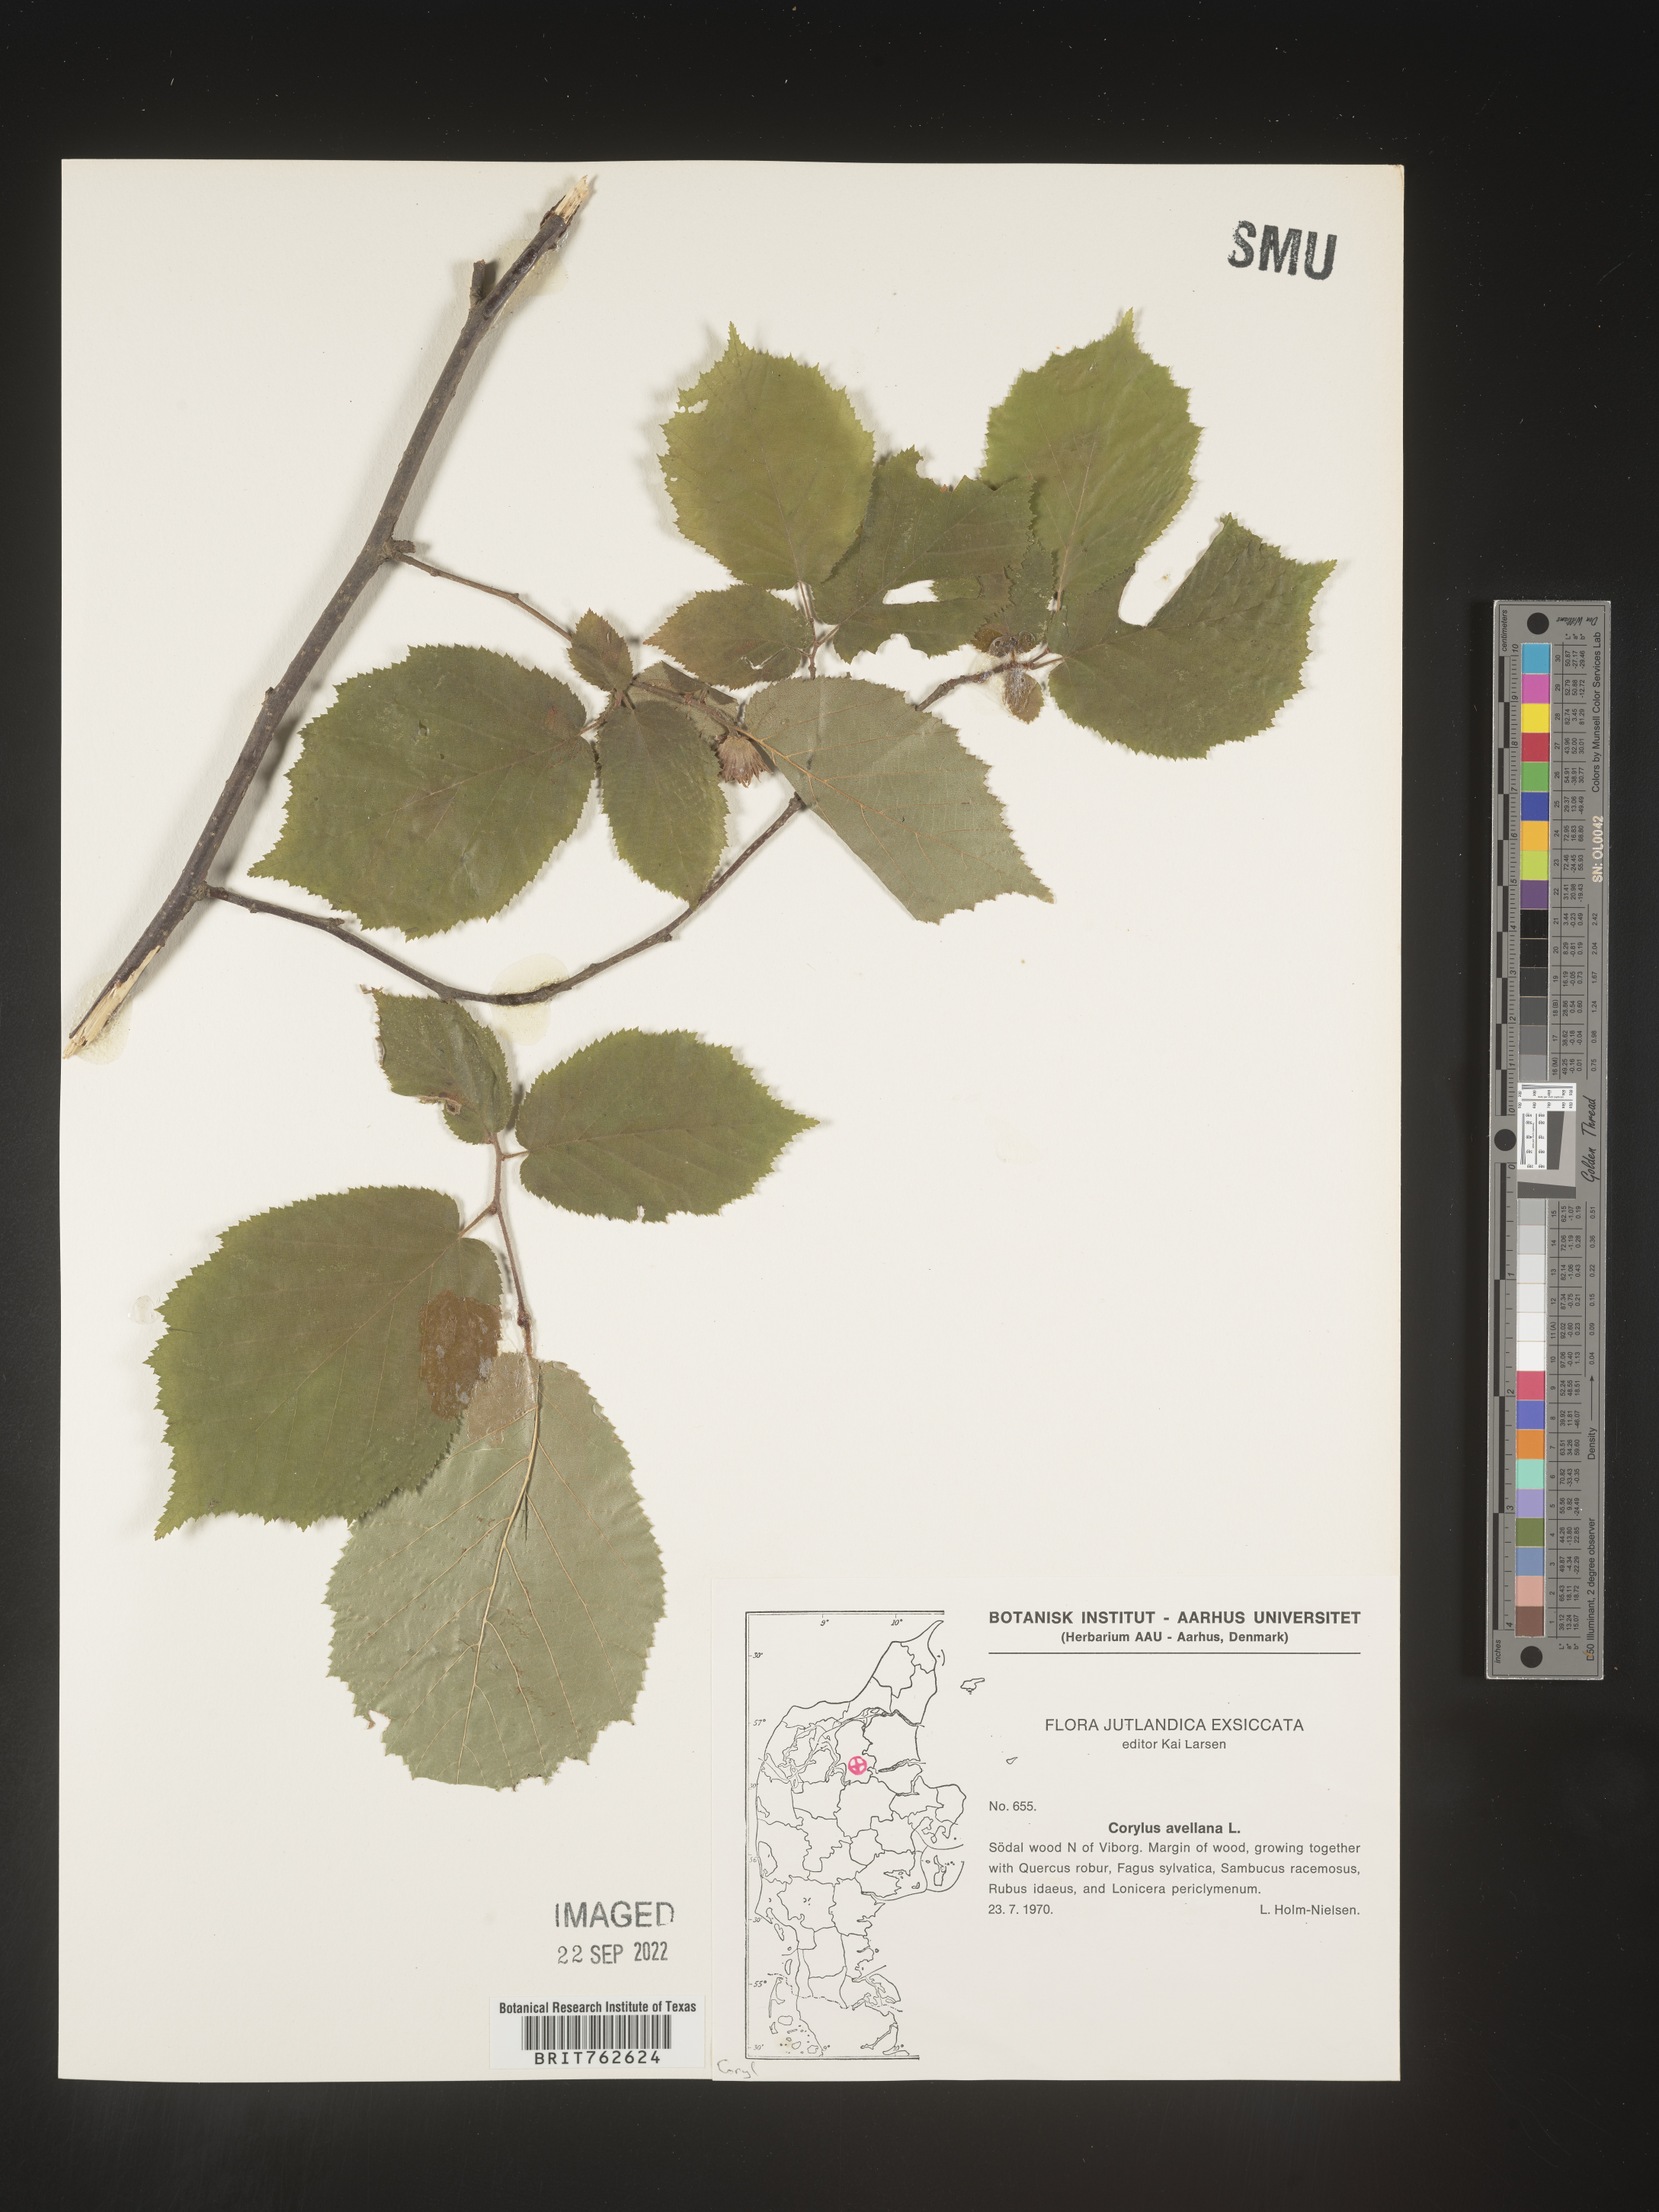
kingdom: Plantae
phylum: Tracheophyta
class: Magnoliopsida
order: Fagales
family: Betulaceae
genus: Corylus
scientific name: Corylus
